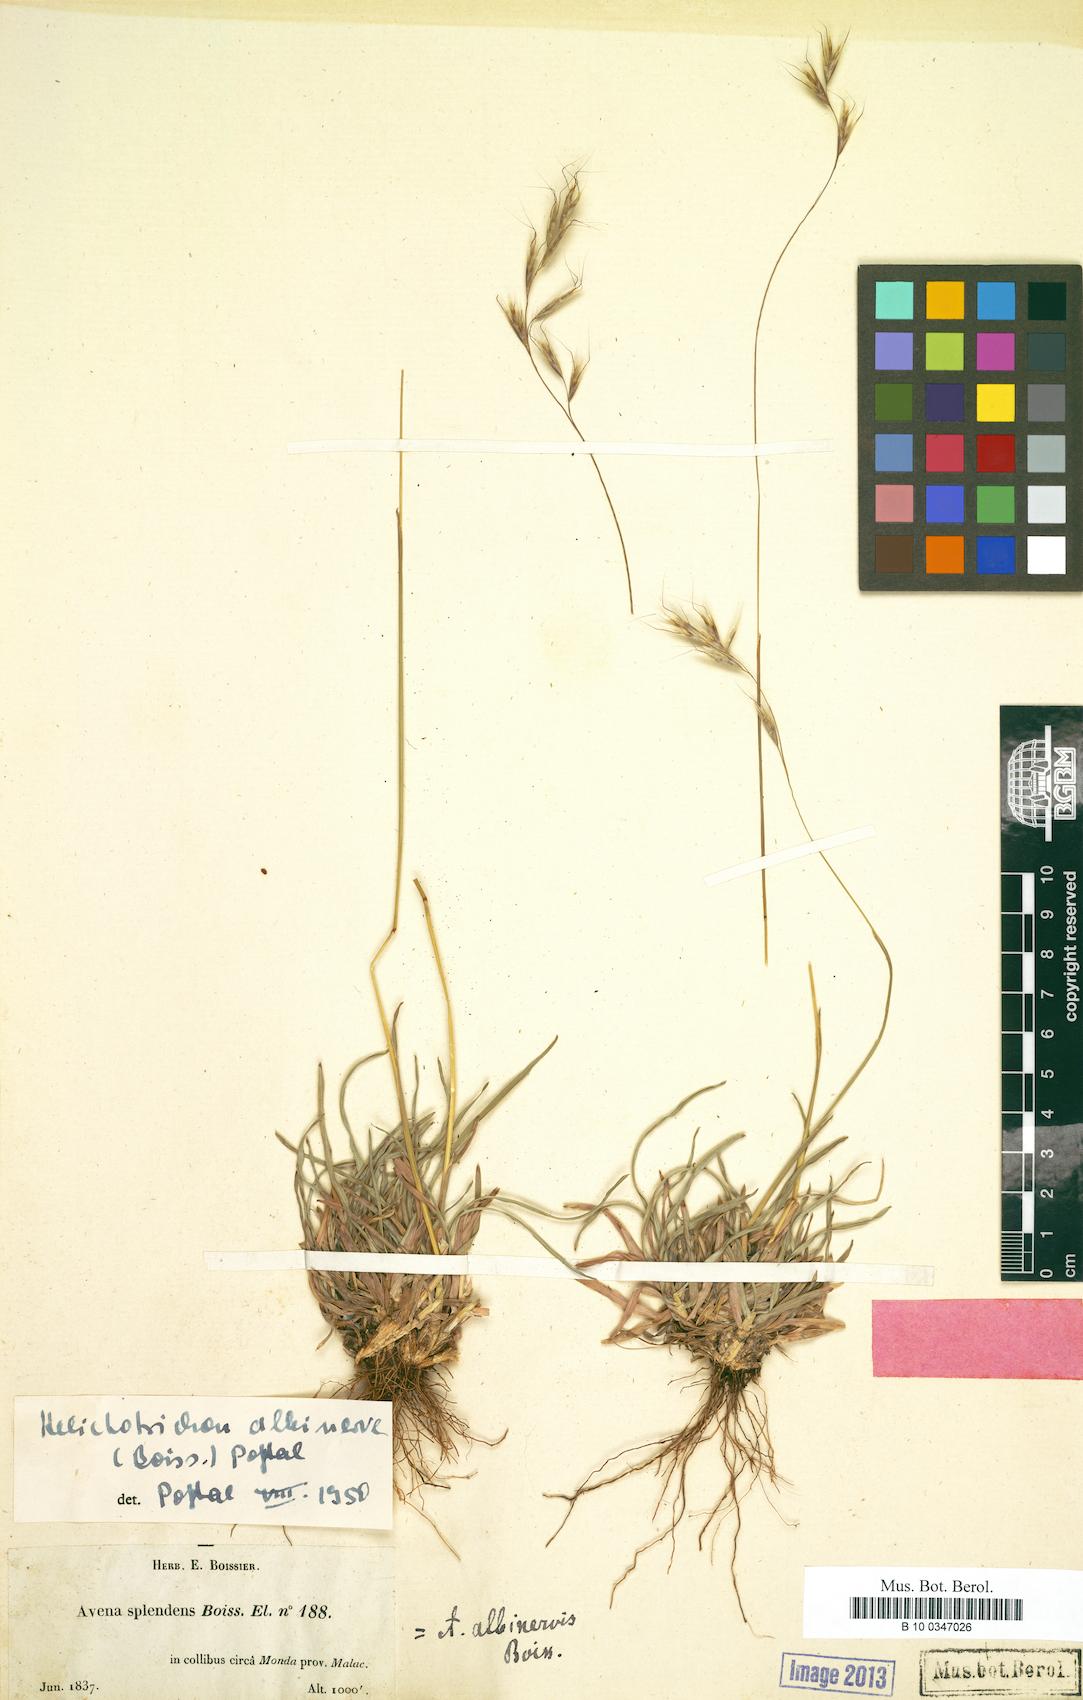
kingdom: Plantae
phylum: Tracheophyta
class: Liliopsida
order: Poales
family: Poaceae
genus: Helictochloa
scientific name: Helictochloa marginata
